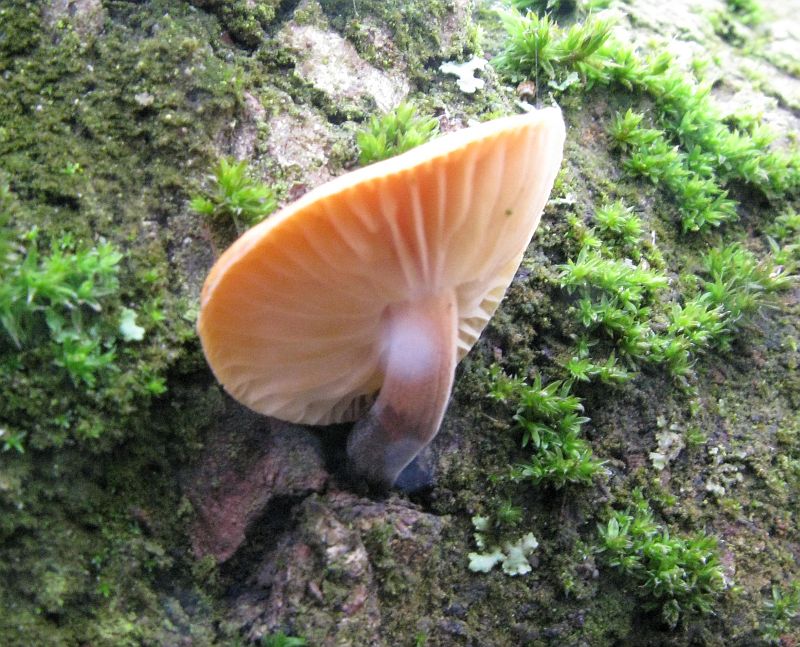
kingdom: Fungi
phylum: Basidiomycota
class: Agaricomycetes
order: Agaricales
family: Physalacriaceae
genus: Flammulina
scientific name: Flammulina velutipes
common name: gul fløjlsfod
